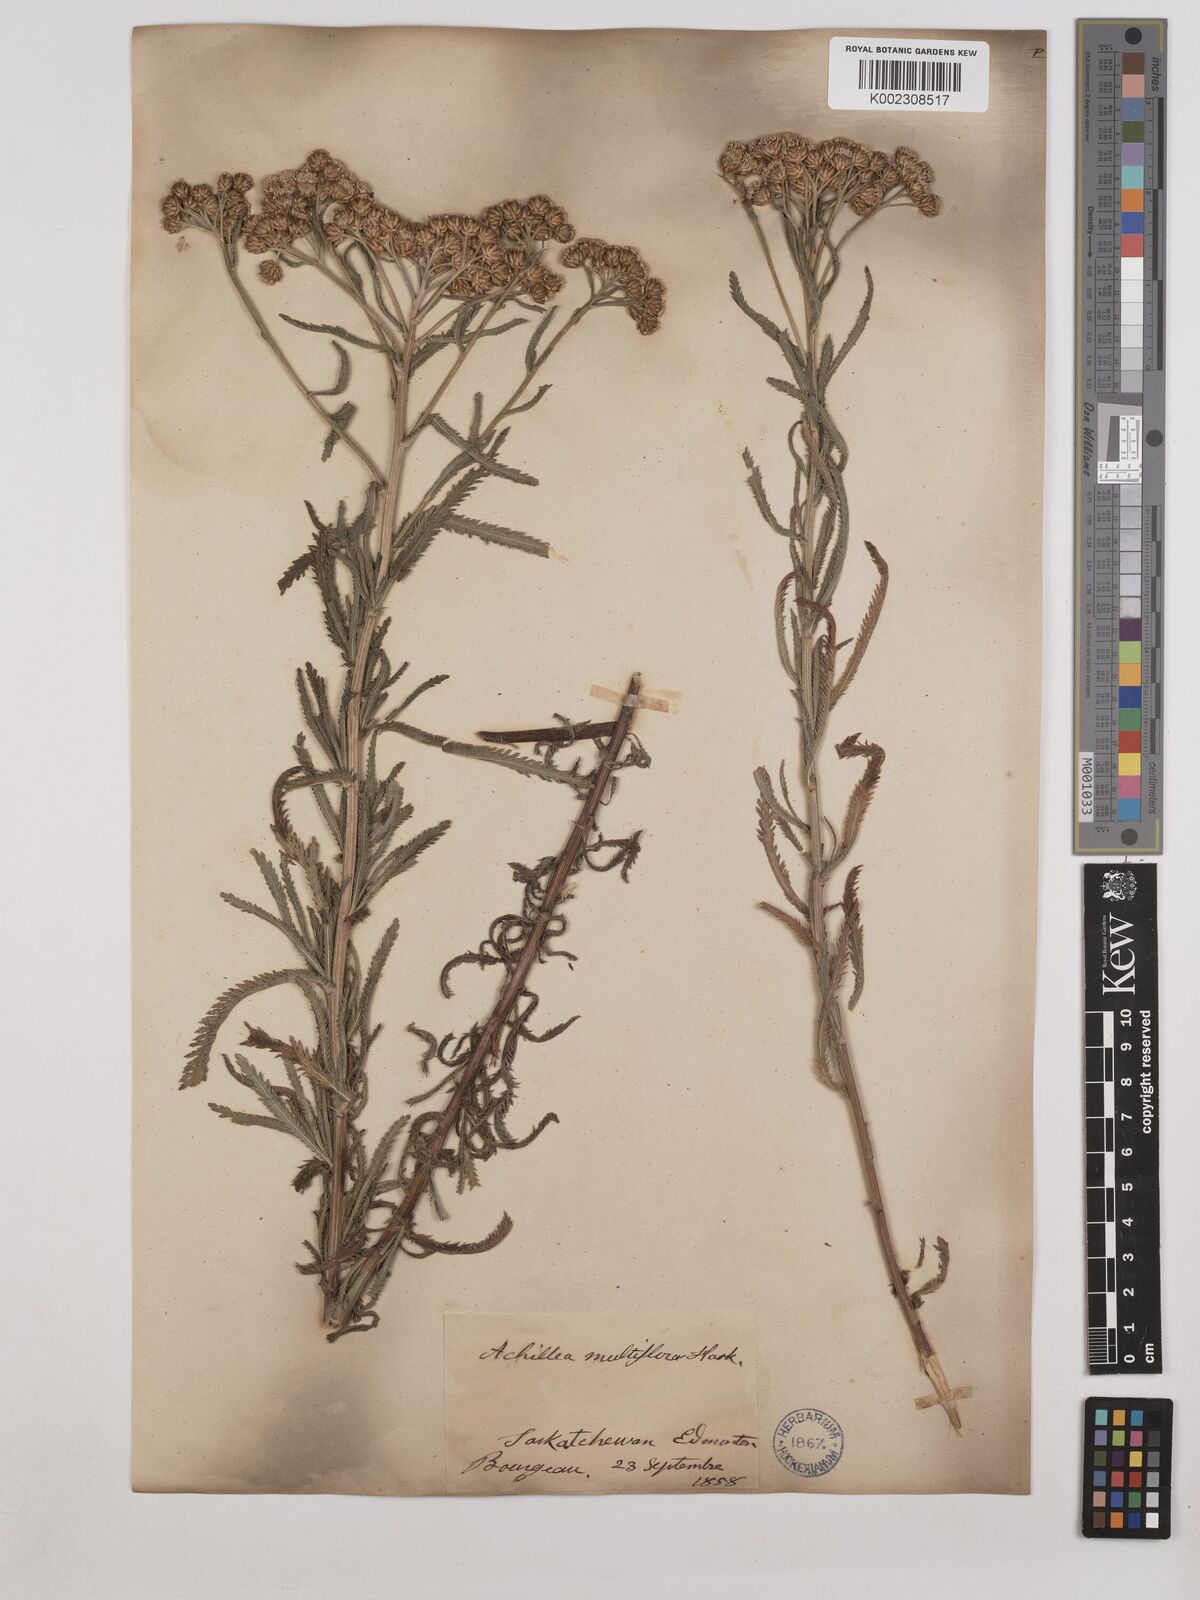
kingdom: Plantae
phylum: Tracheophyta
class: Magnoliopsida
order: Asterales
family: Asteraceae
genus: Achillea
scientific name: Achillea alpina
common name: Siberian yarrow
